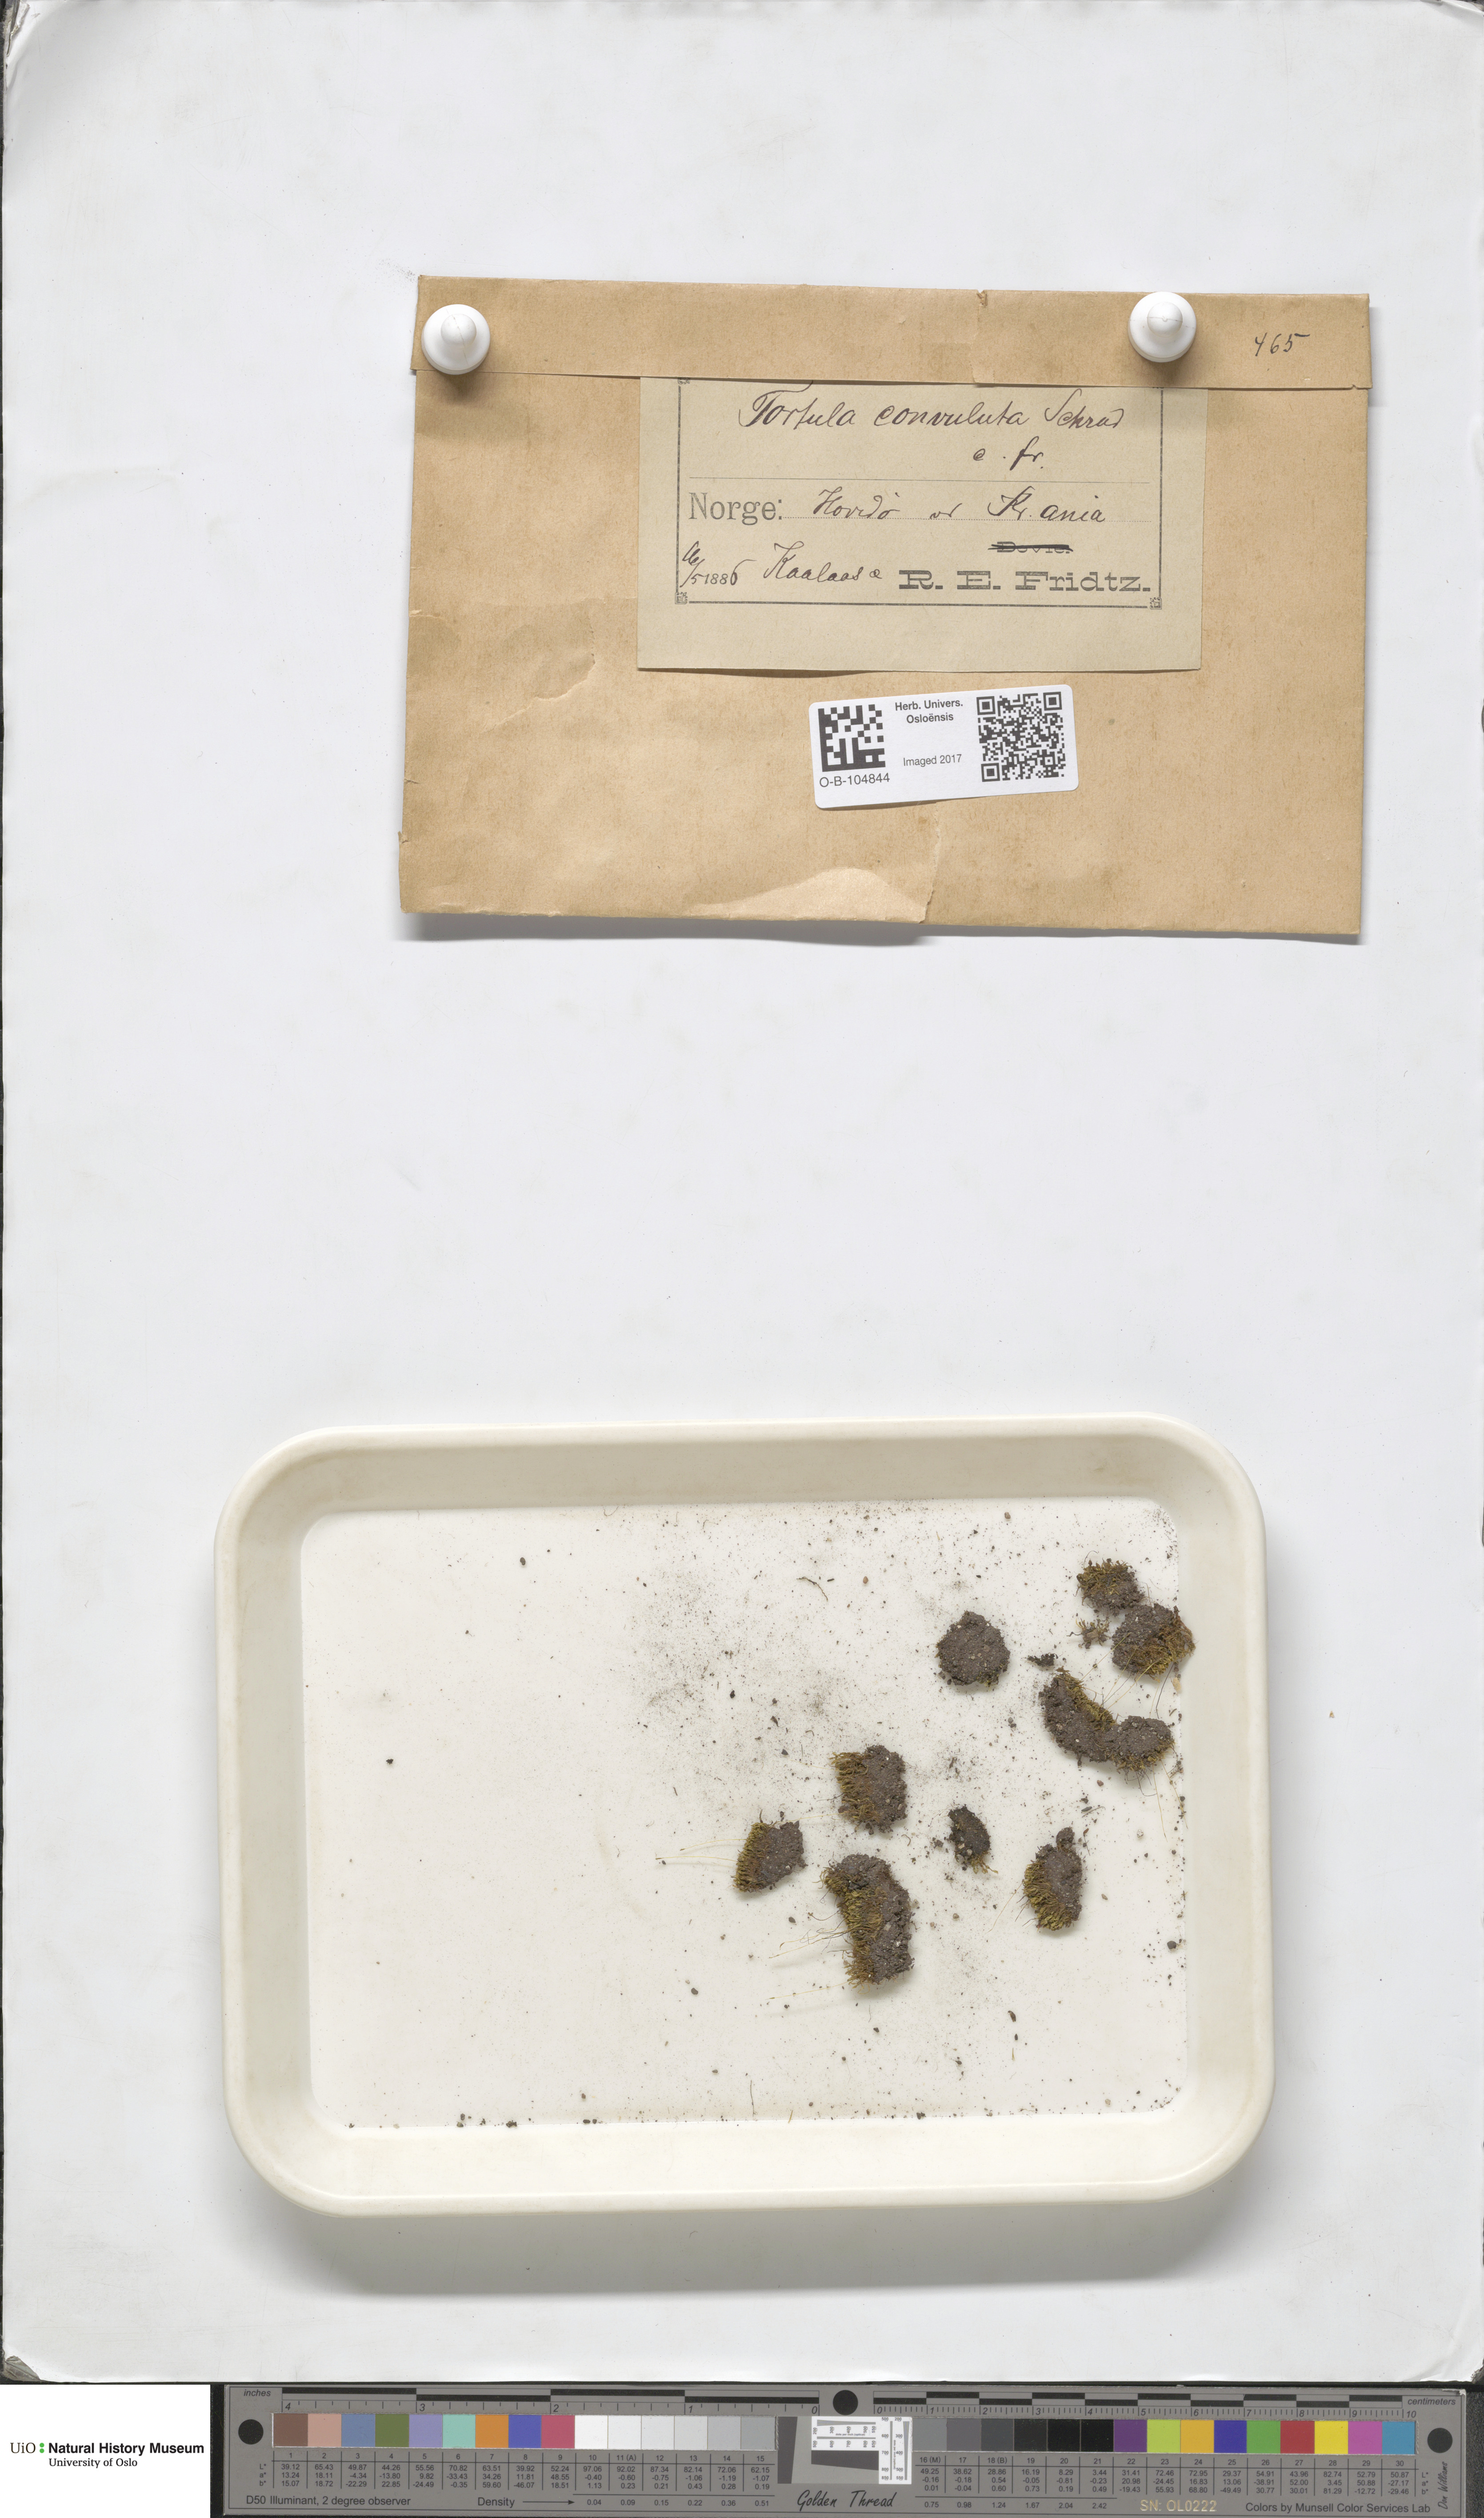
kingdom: Plantae
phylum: Bryophyta
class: Bryopsida
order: Pottiales
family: Pottiaceae
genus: Streblotrichum
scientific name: Streblotrichum convolutum
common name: Lesser bird's-claw beard-moss
